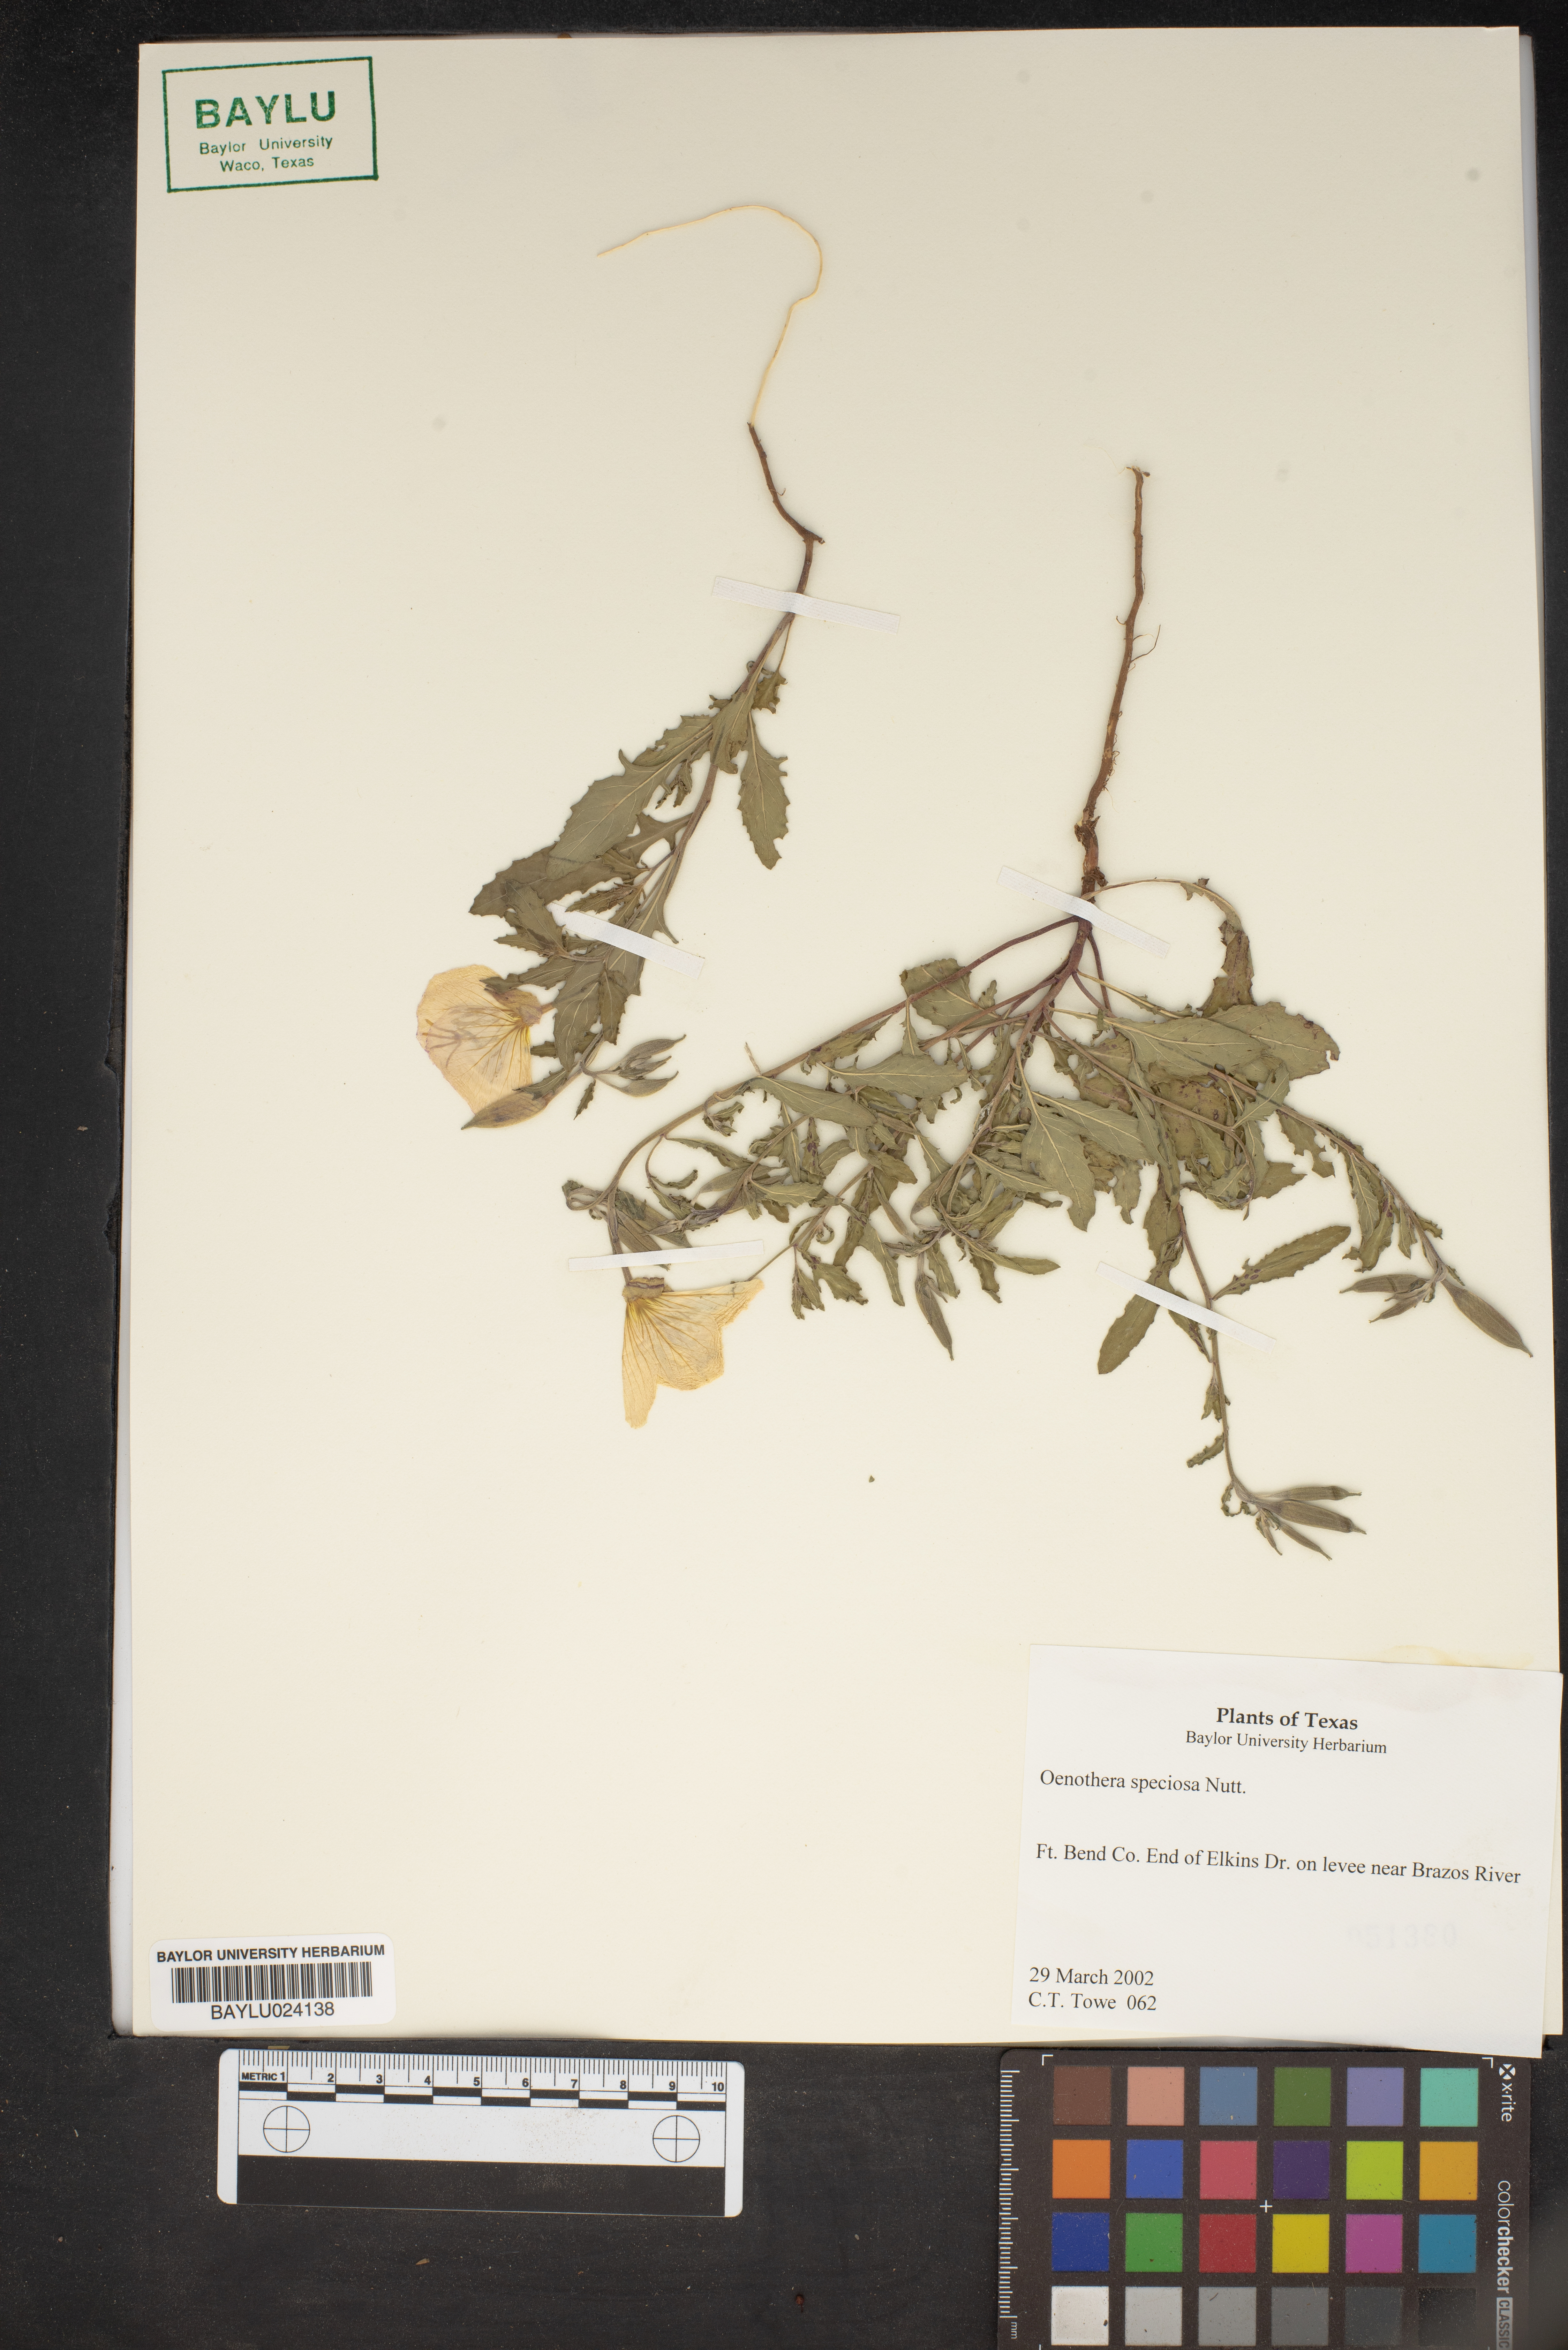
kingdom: Plantae
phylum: Tracheophyta
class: Magnoliopsida
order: Myrtales
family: Onagraceae
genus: Oenothera
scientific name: Oenothera speciosa
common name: White evening-primrose
